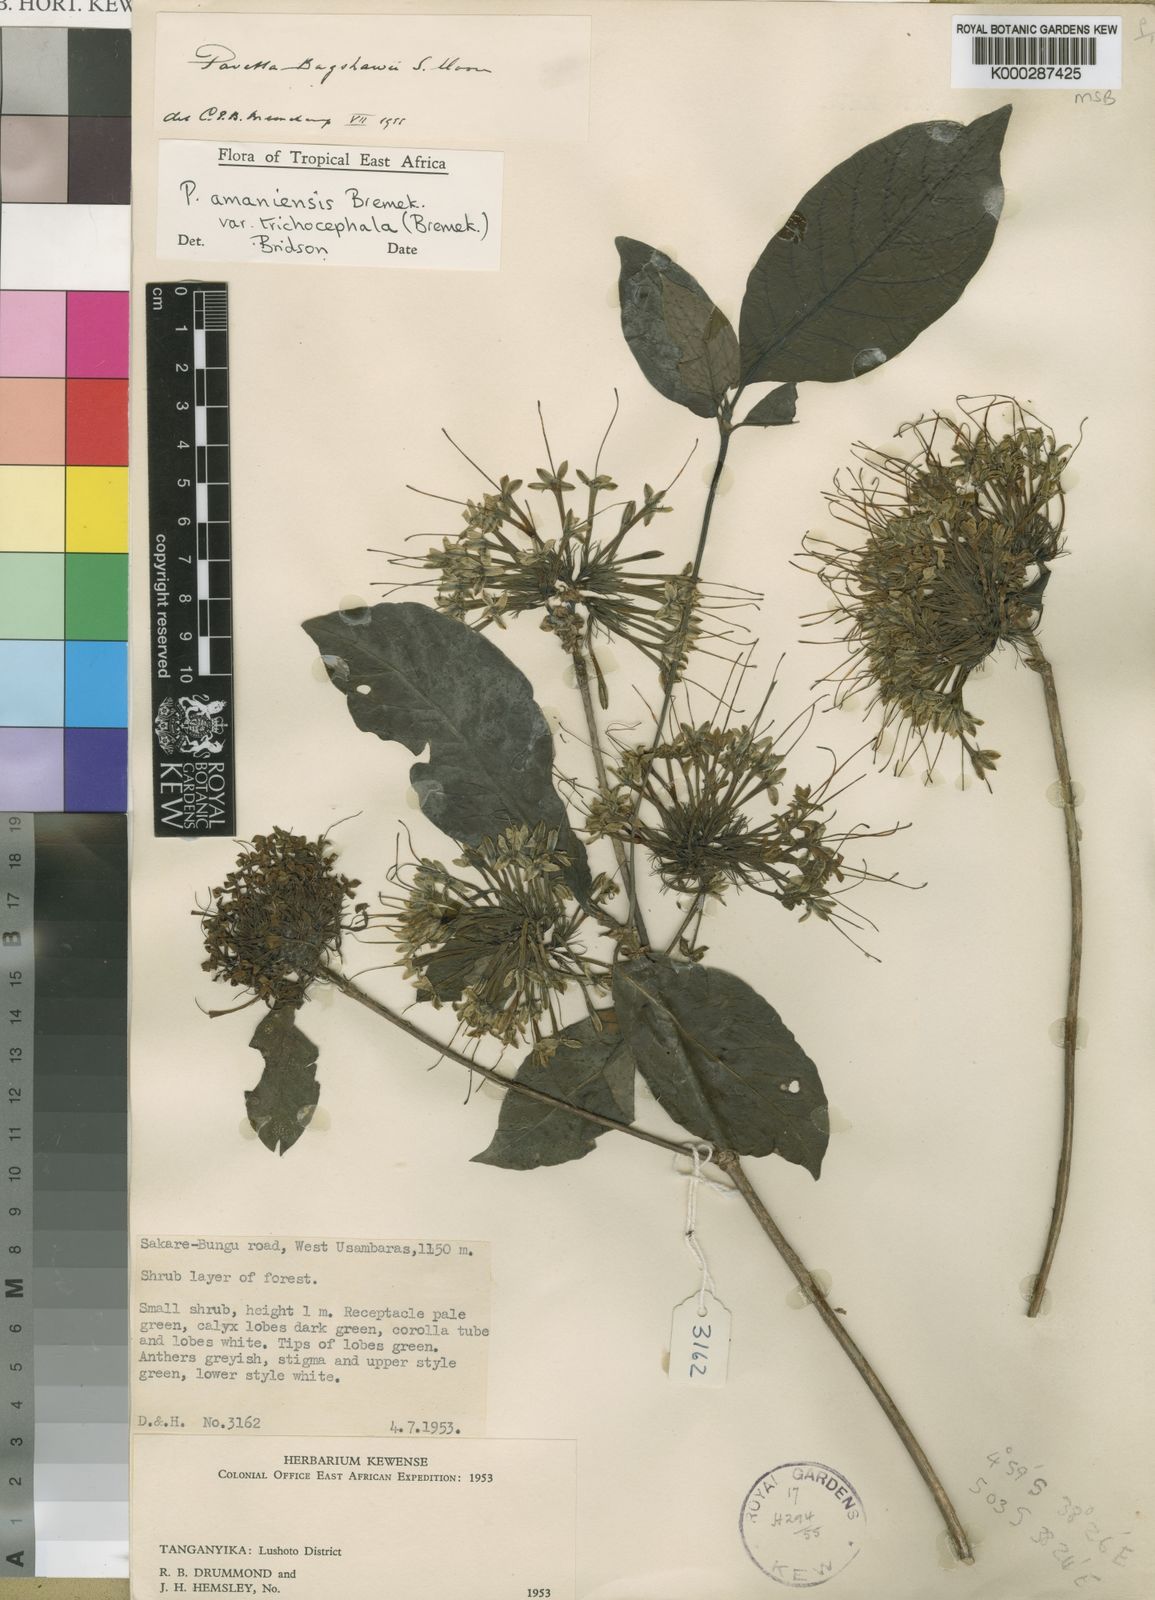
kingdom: Plantae
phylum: Tracheophyta
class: Magnoliopsida
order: Gentianales
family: Rubiaceae
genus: Pavetta
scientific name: Pavetta amaniensis
